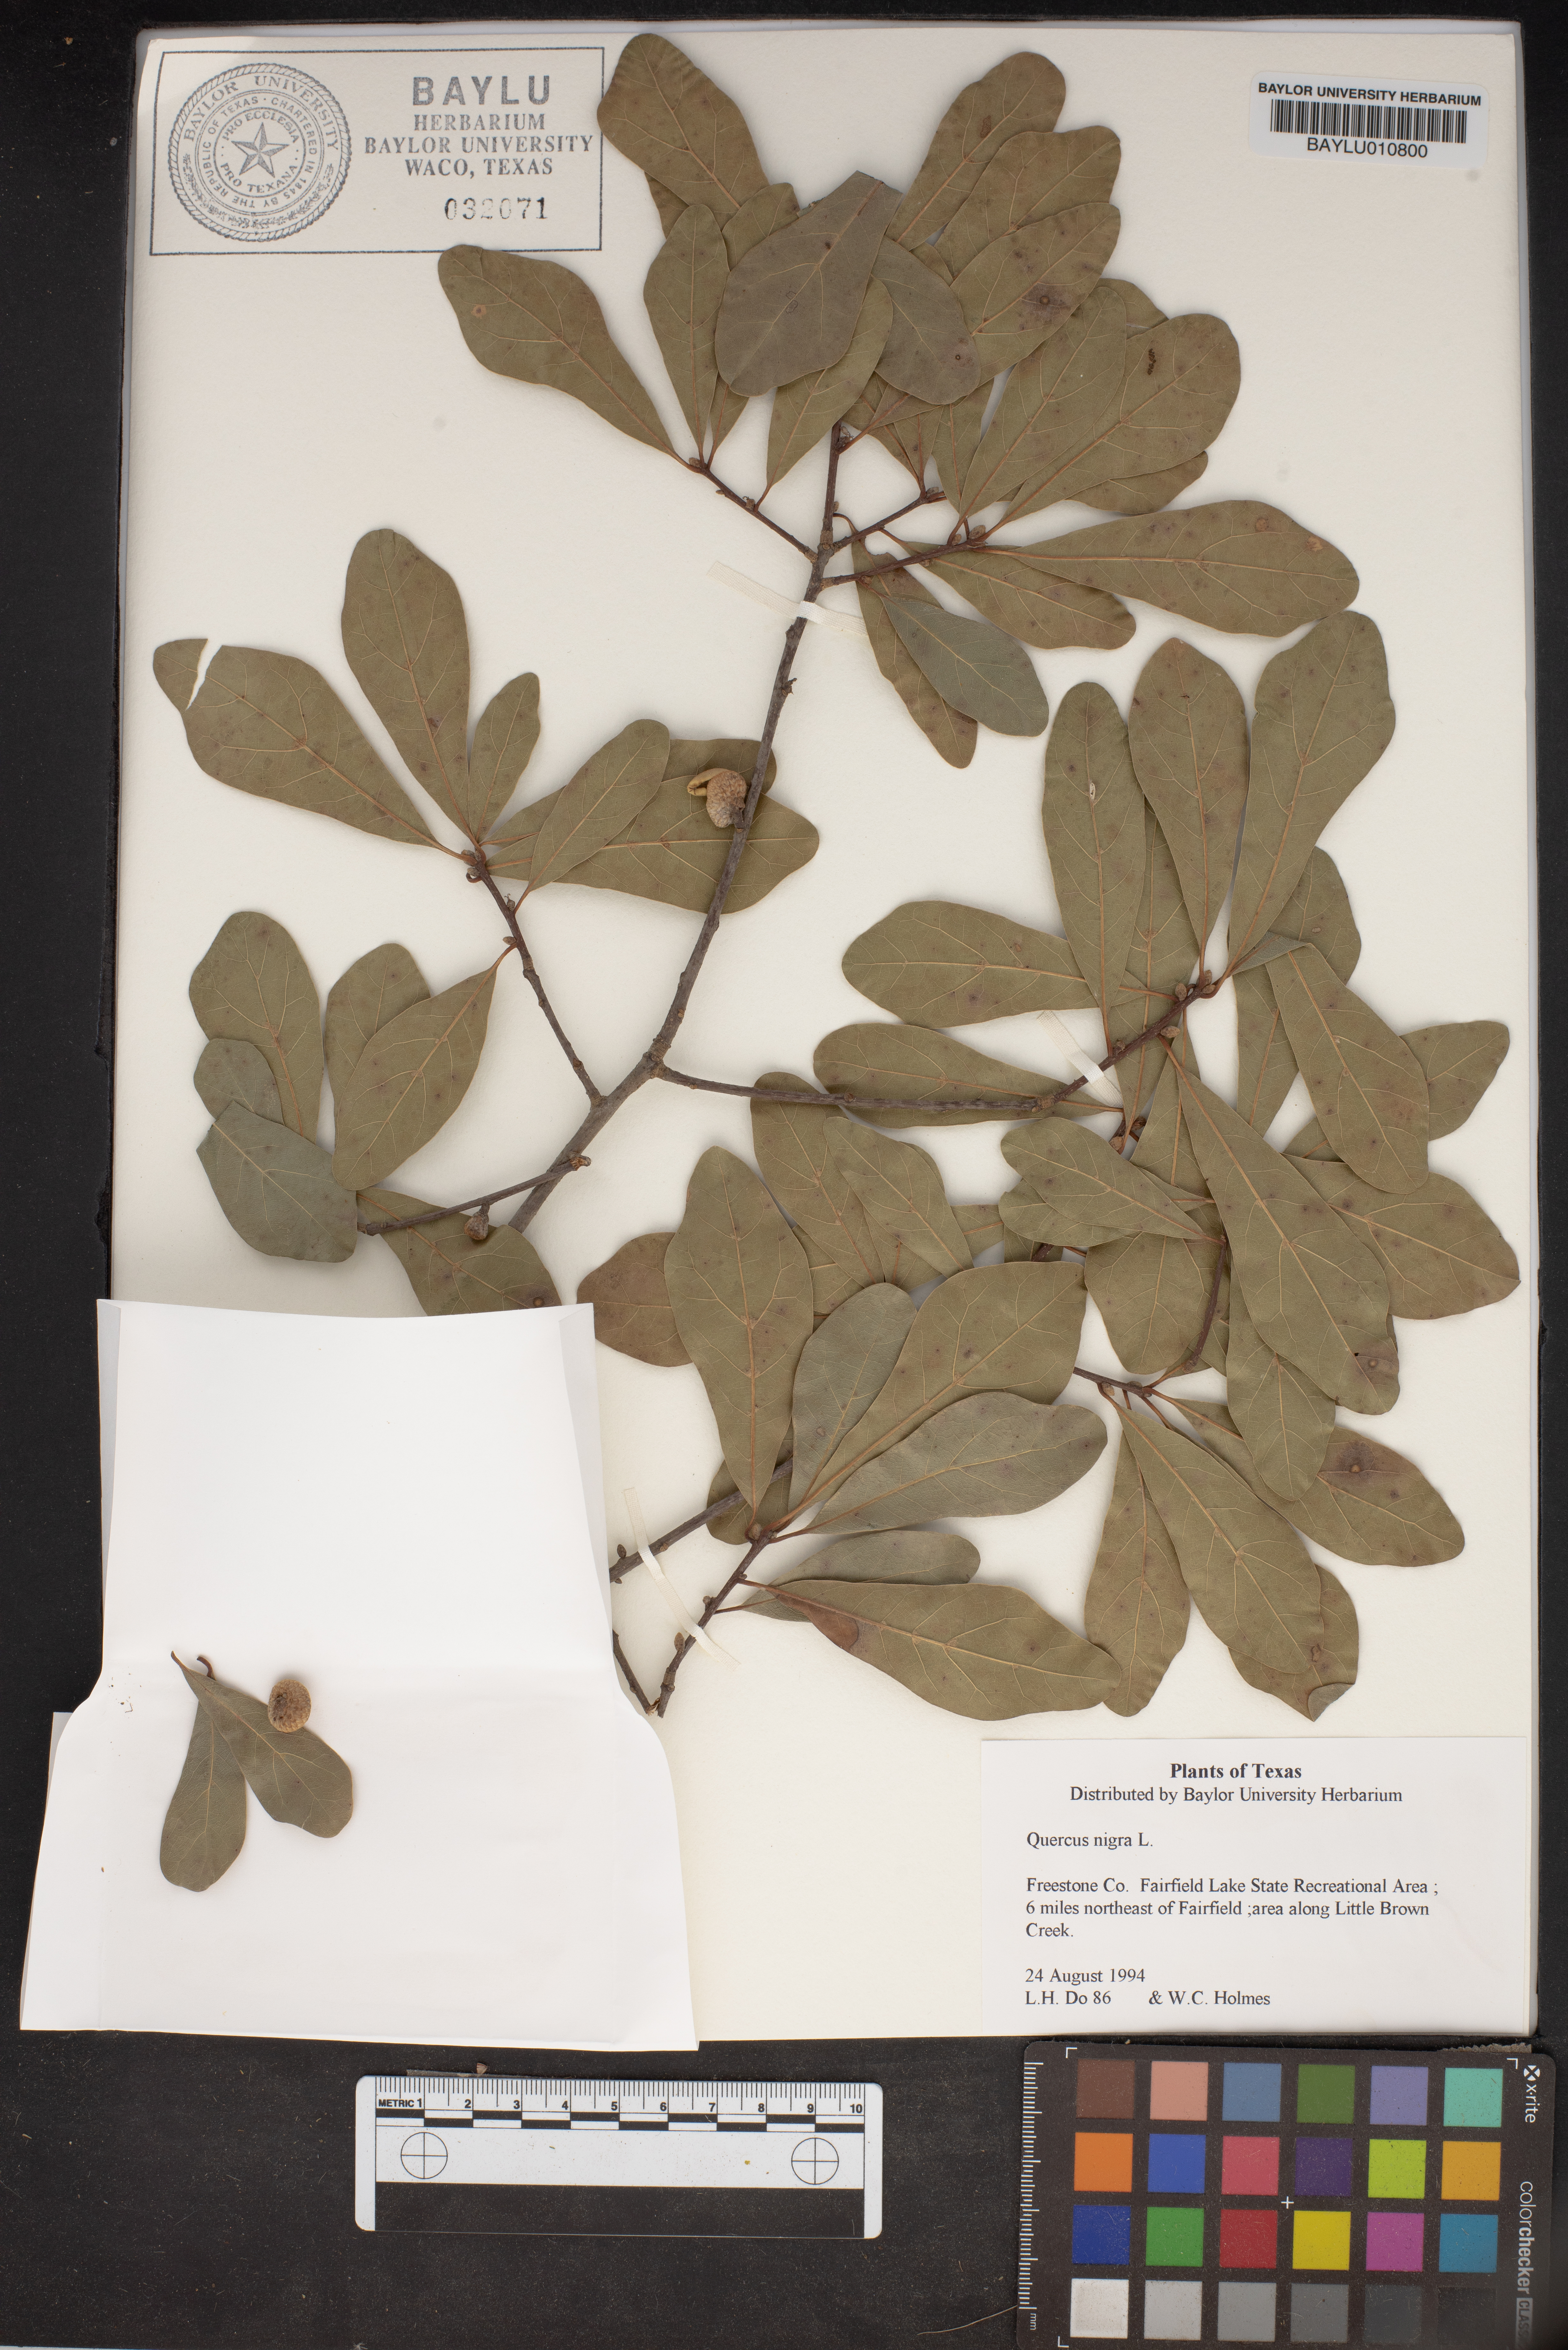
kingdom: Plantae
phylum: Tracheophyta
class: Magnoliopsida
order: Fagales
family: Fagaceae
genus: Quercus
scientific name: Quercus nigra
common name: Water oak
